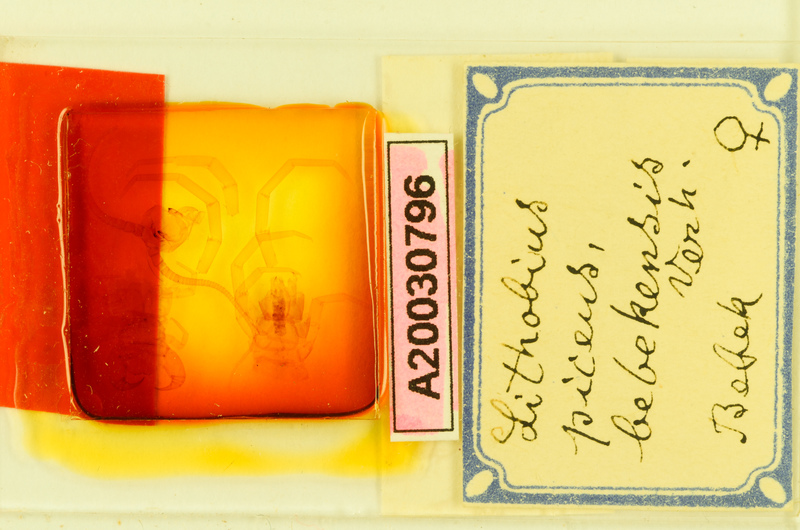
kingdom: Animalia
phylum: Arthropoda
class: Chilopoda
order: Lithobiomorpha
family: Lithobiidae
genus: Lithobius
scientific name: Lithobius viriatus
